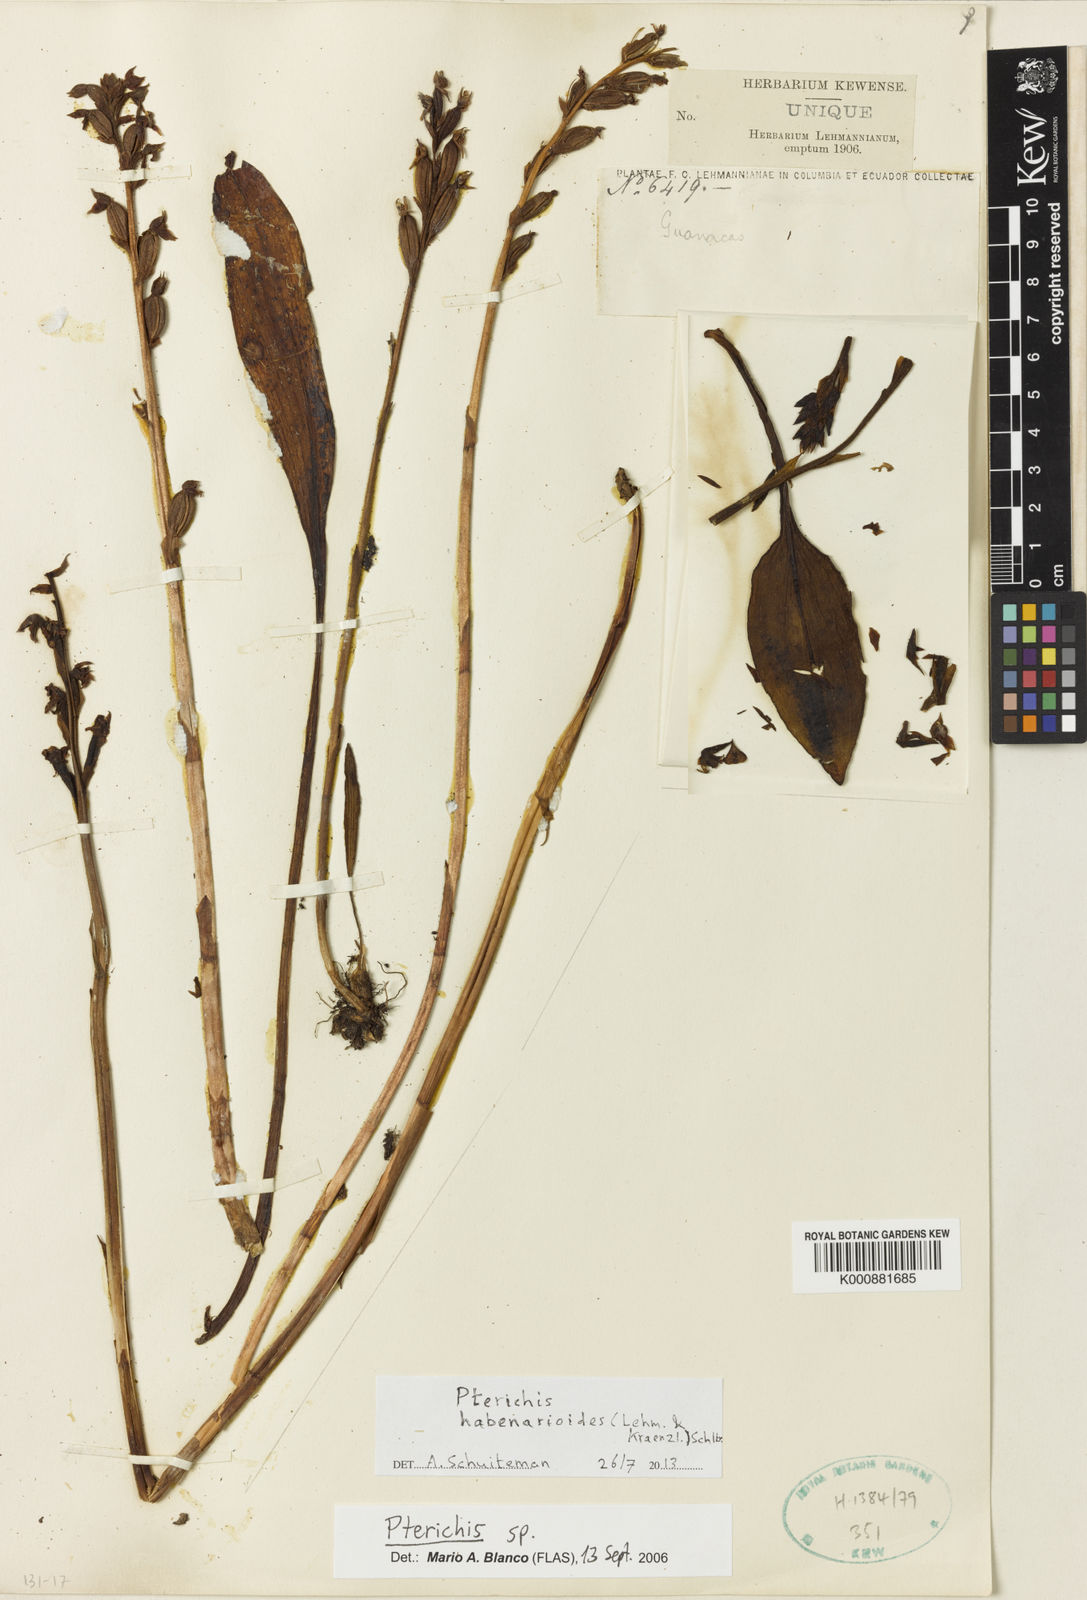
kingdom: Plantae
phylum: Tracheophyta
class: Liliopsida
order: Asparagales
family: Orchidaceae
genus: Pterichis
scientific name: Pterichis habenarioides
